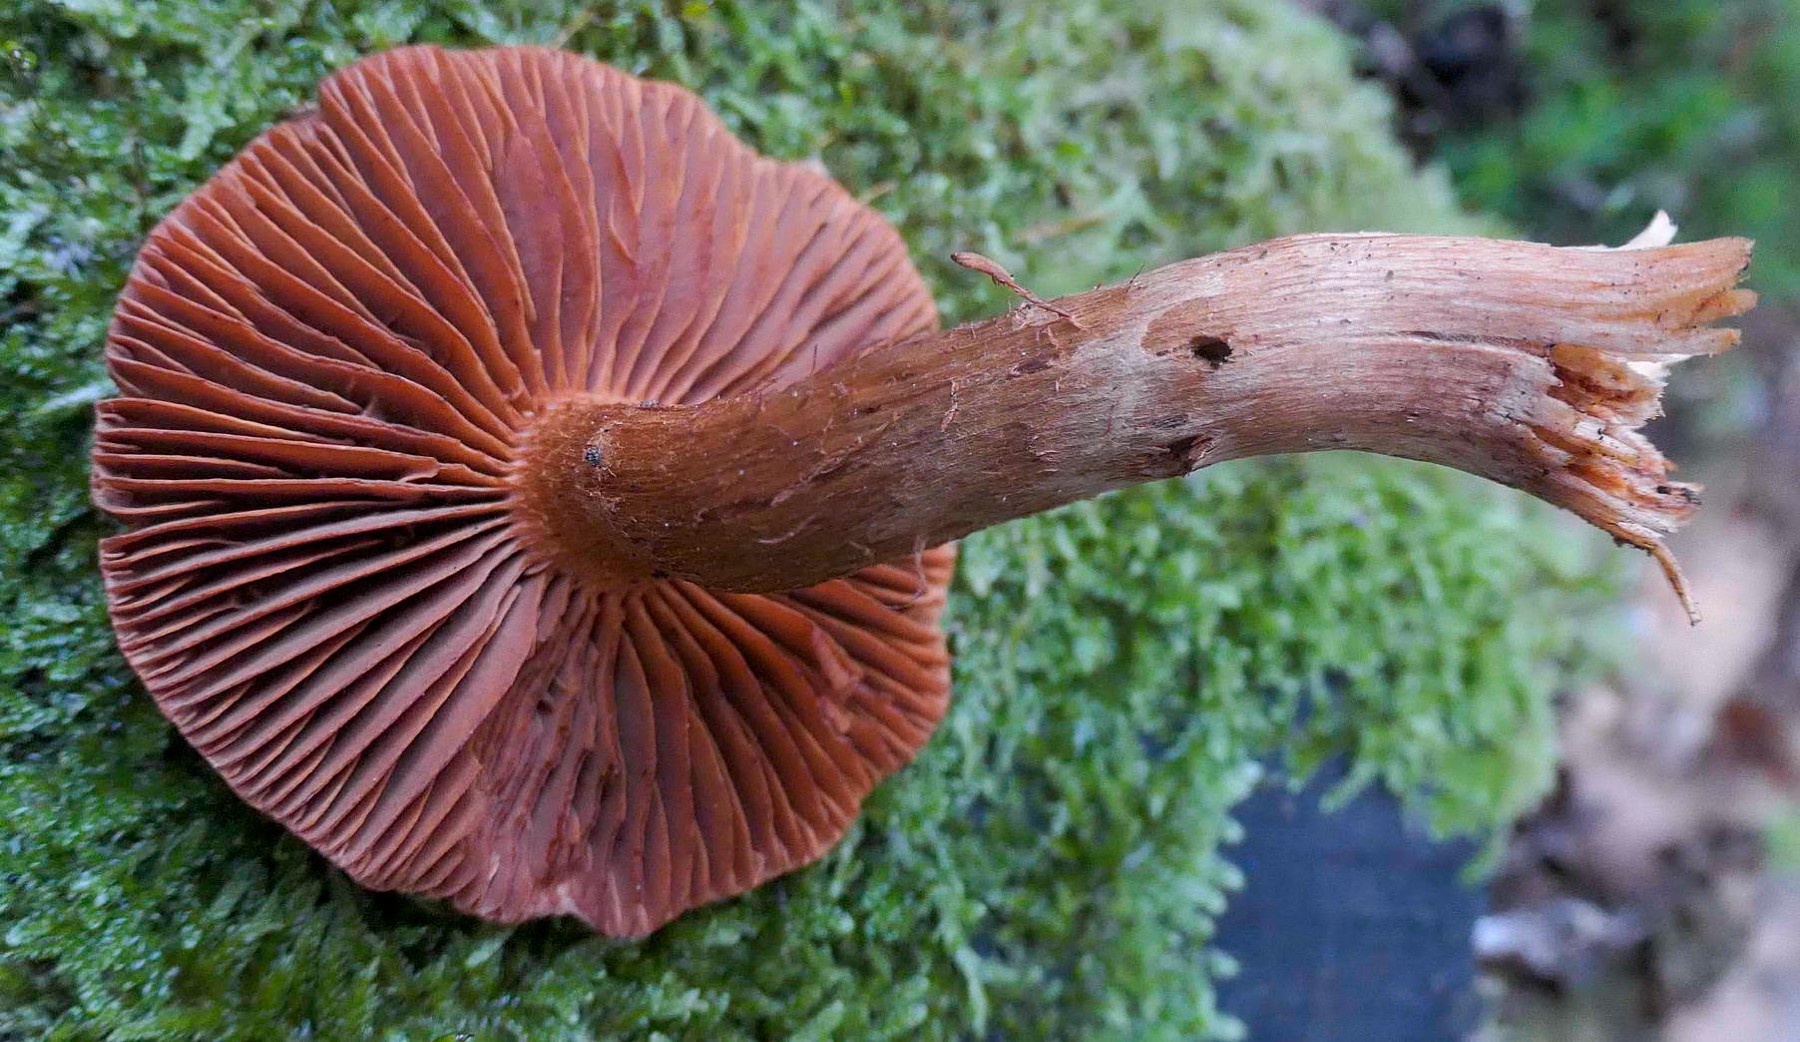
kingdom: Fungi
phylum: Basidiomycota
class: Agaricomycetes
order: Agaricales
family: Cortinariaceae
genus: Cortinarius
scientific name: Cortinarius rubellus
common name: puklet gift-slørhat
